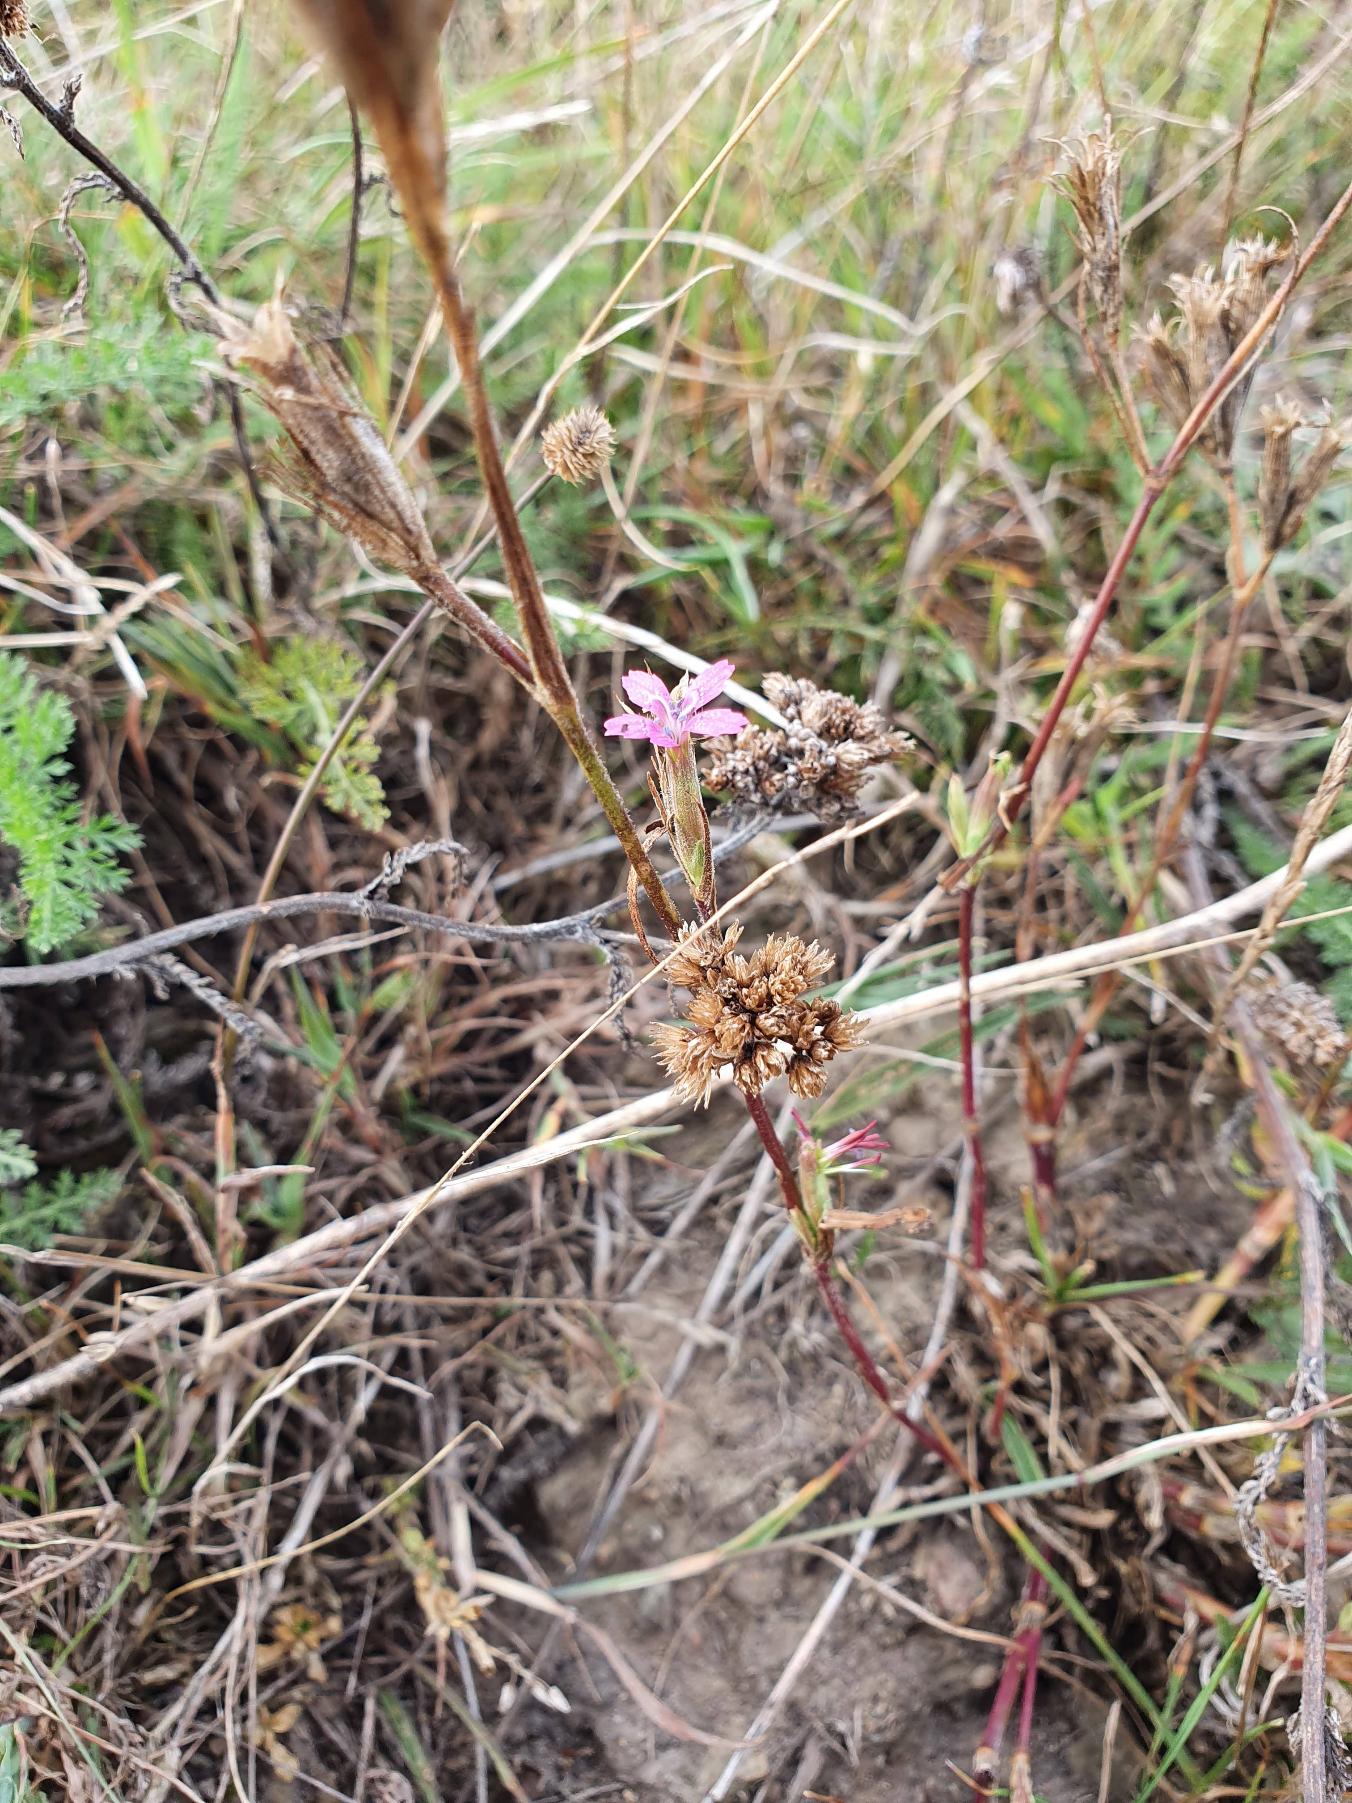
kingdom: Plantae
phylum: Tracheophyta
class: Magnoliopsida
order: Caryophyllales
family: Caryophyllaceae
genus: Dianthus
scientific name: Dianthus armeria
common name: Kost-nellike
